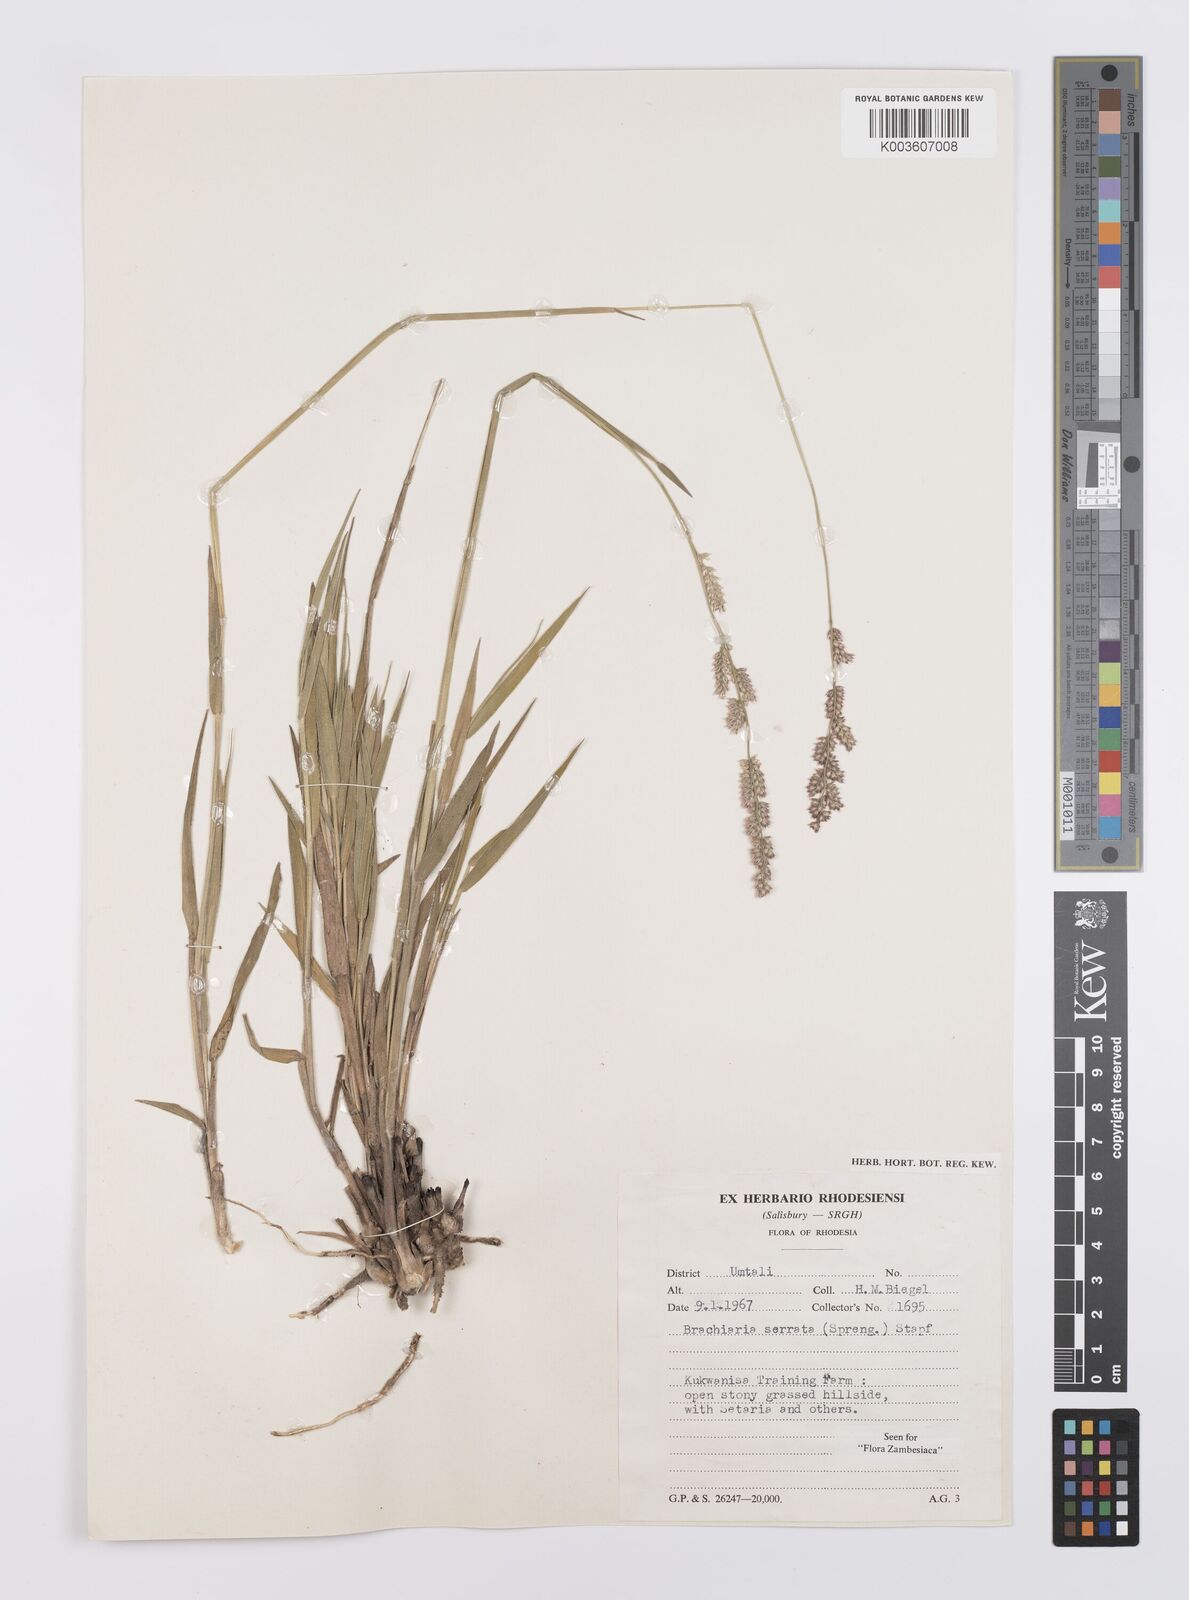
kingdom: Plantae
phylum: Tracheophyta
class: Liliopsida
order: Poales
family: Poaceae
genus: Urochloa
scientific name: Urochloa serrata
